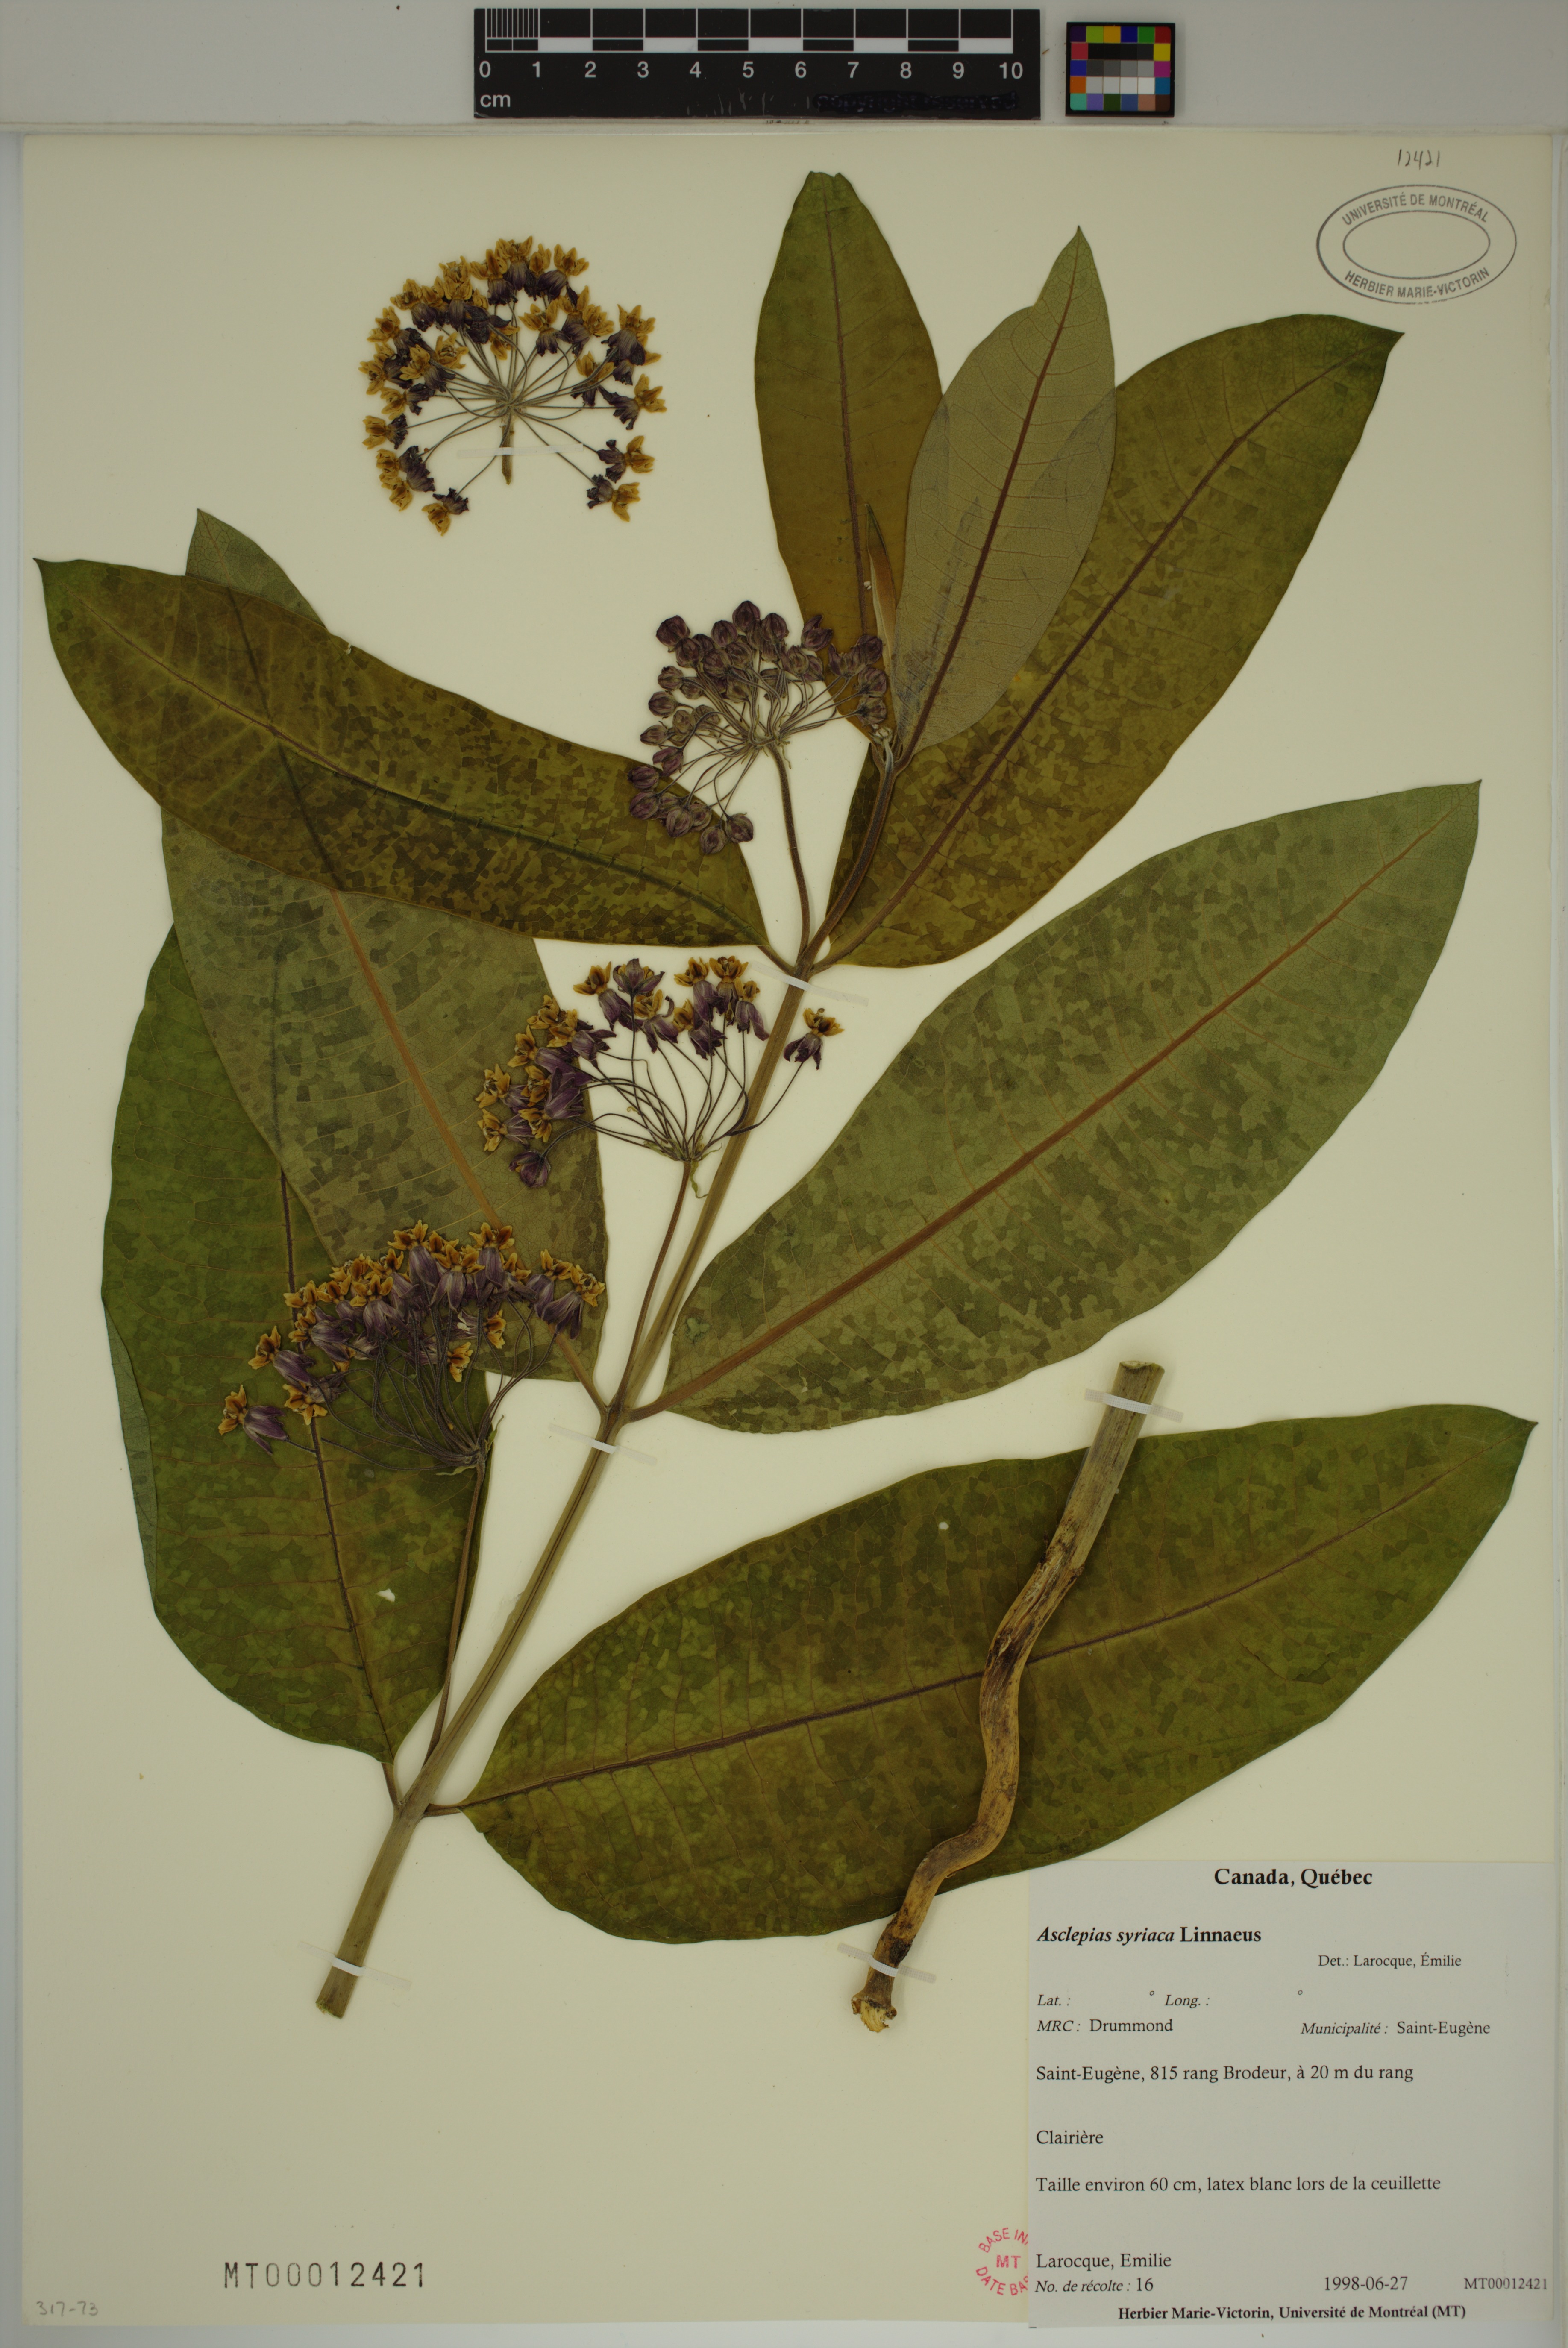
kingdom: Plantae
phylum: Tracheophyta
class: Magnoliopsida
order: Gentianales
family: Apocynaceae
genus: Asclepias
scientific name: Asclepias syriaca
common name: Common milkweed
